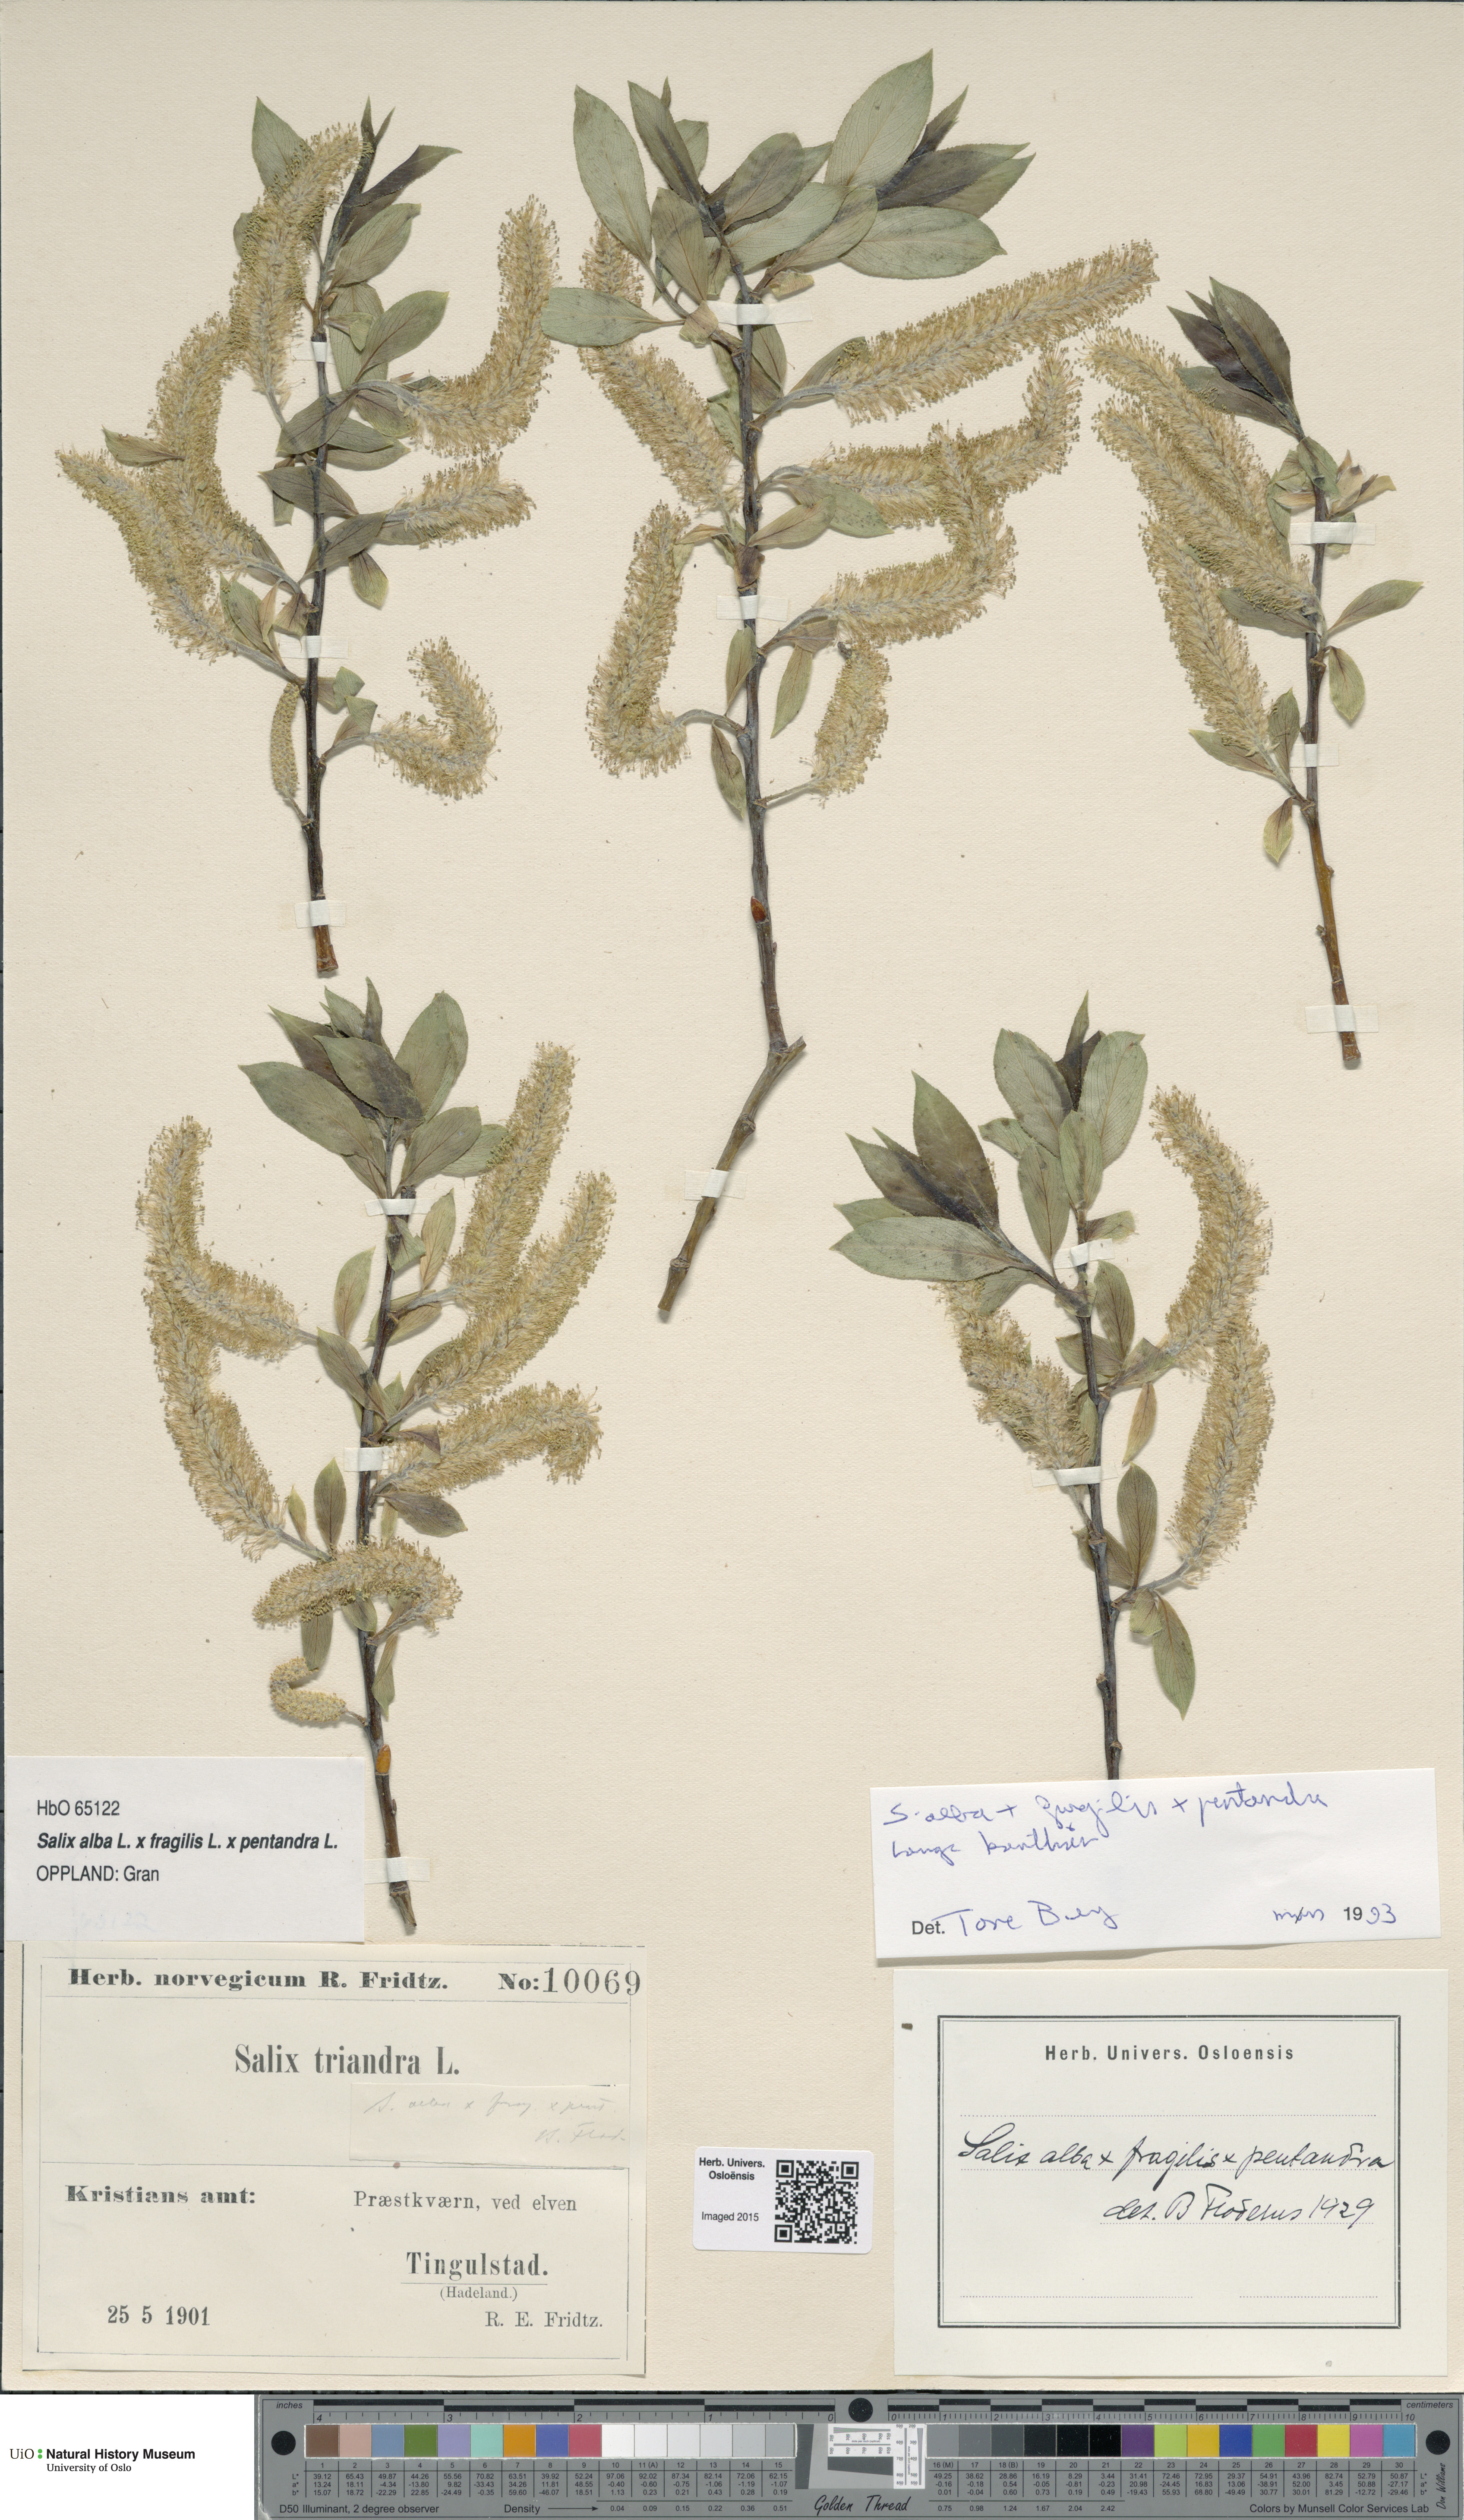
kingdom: Plantae
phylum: Tracheophyta
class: Magnoliopsida
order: Malpighiales
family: Salicaceae
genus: Salix
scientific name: Salix
